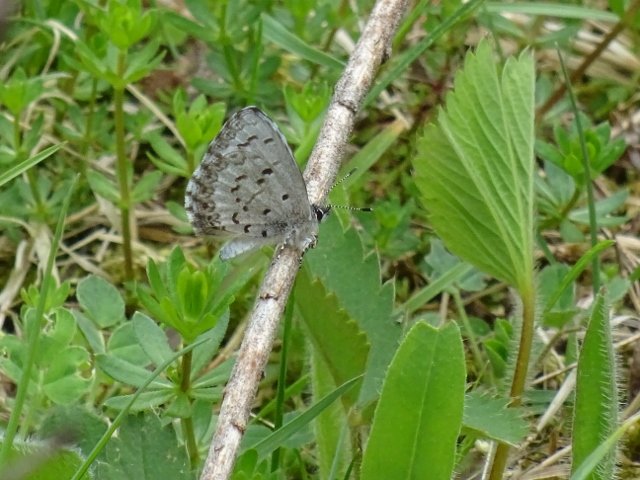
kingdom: Animalia
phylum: Arthropoda
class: Insecta
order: Lepidoptera
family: Lycaenidae
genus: Celastrina
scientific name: Celastrina
